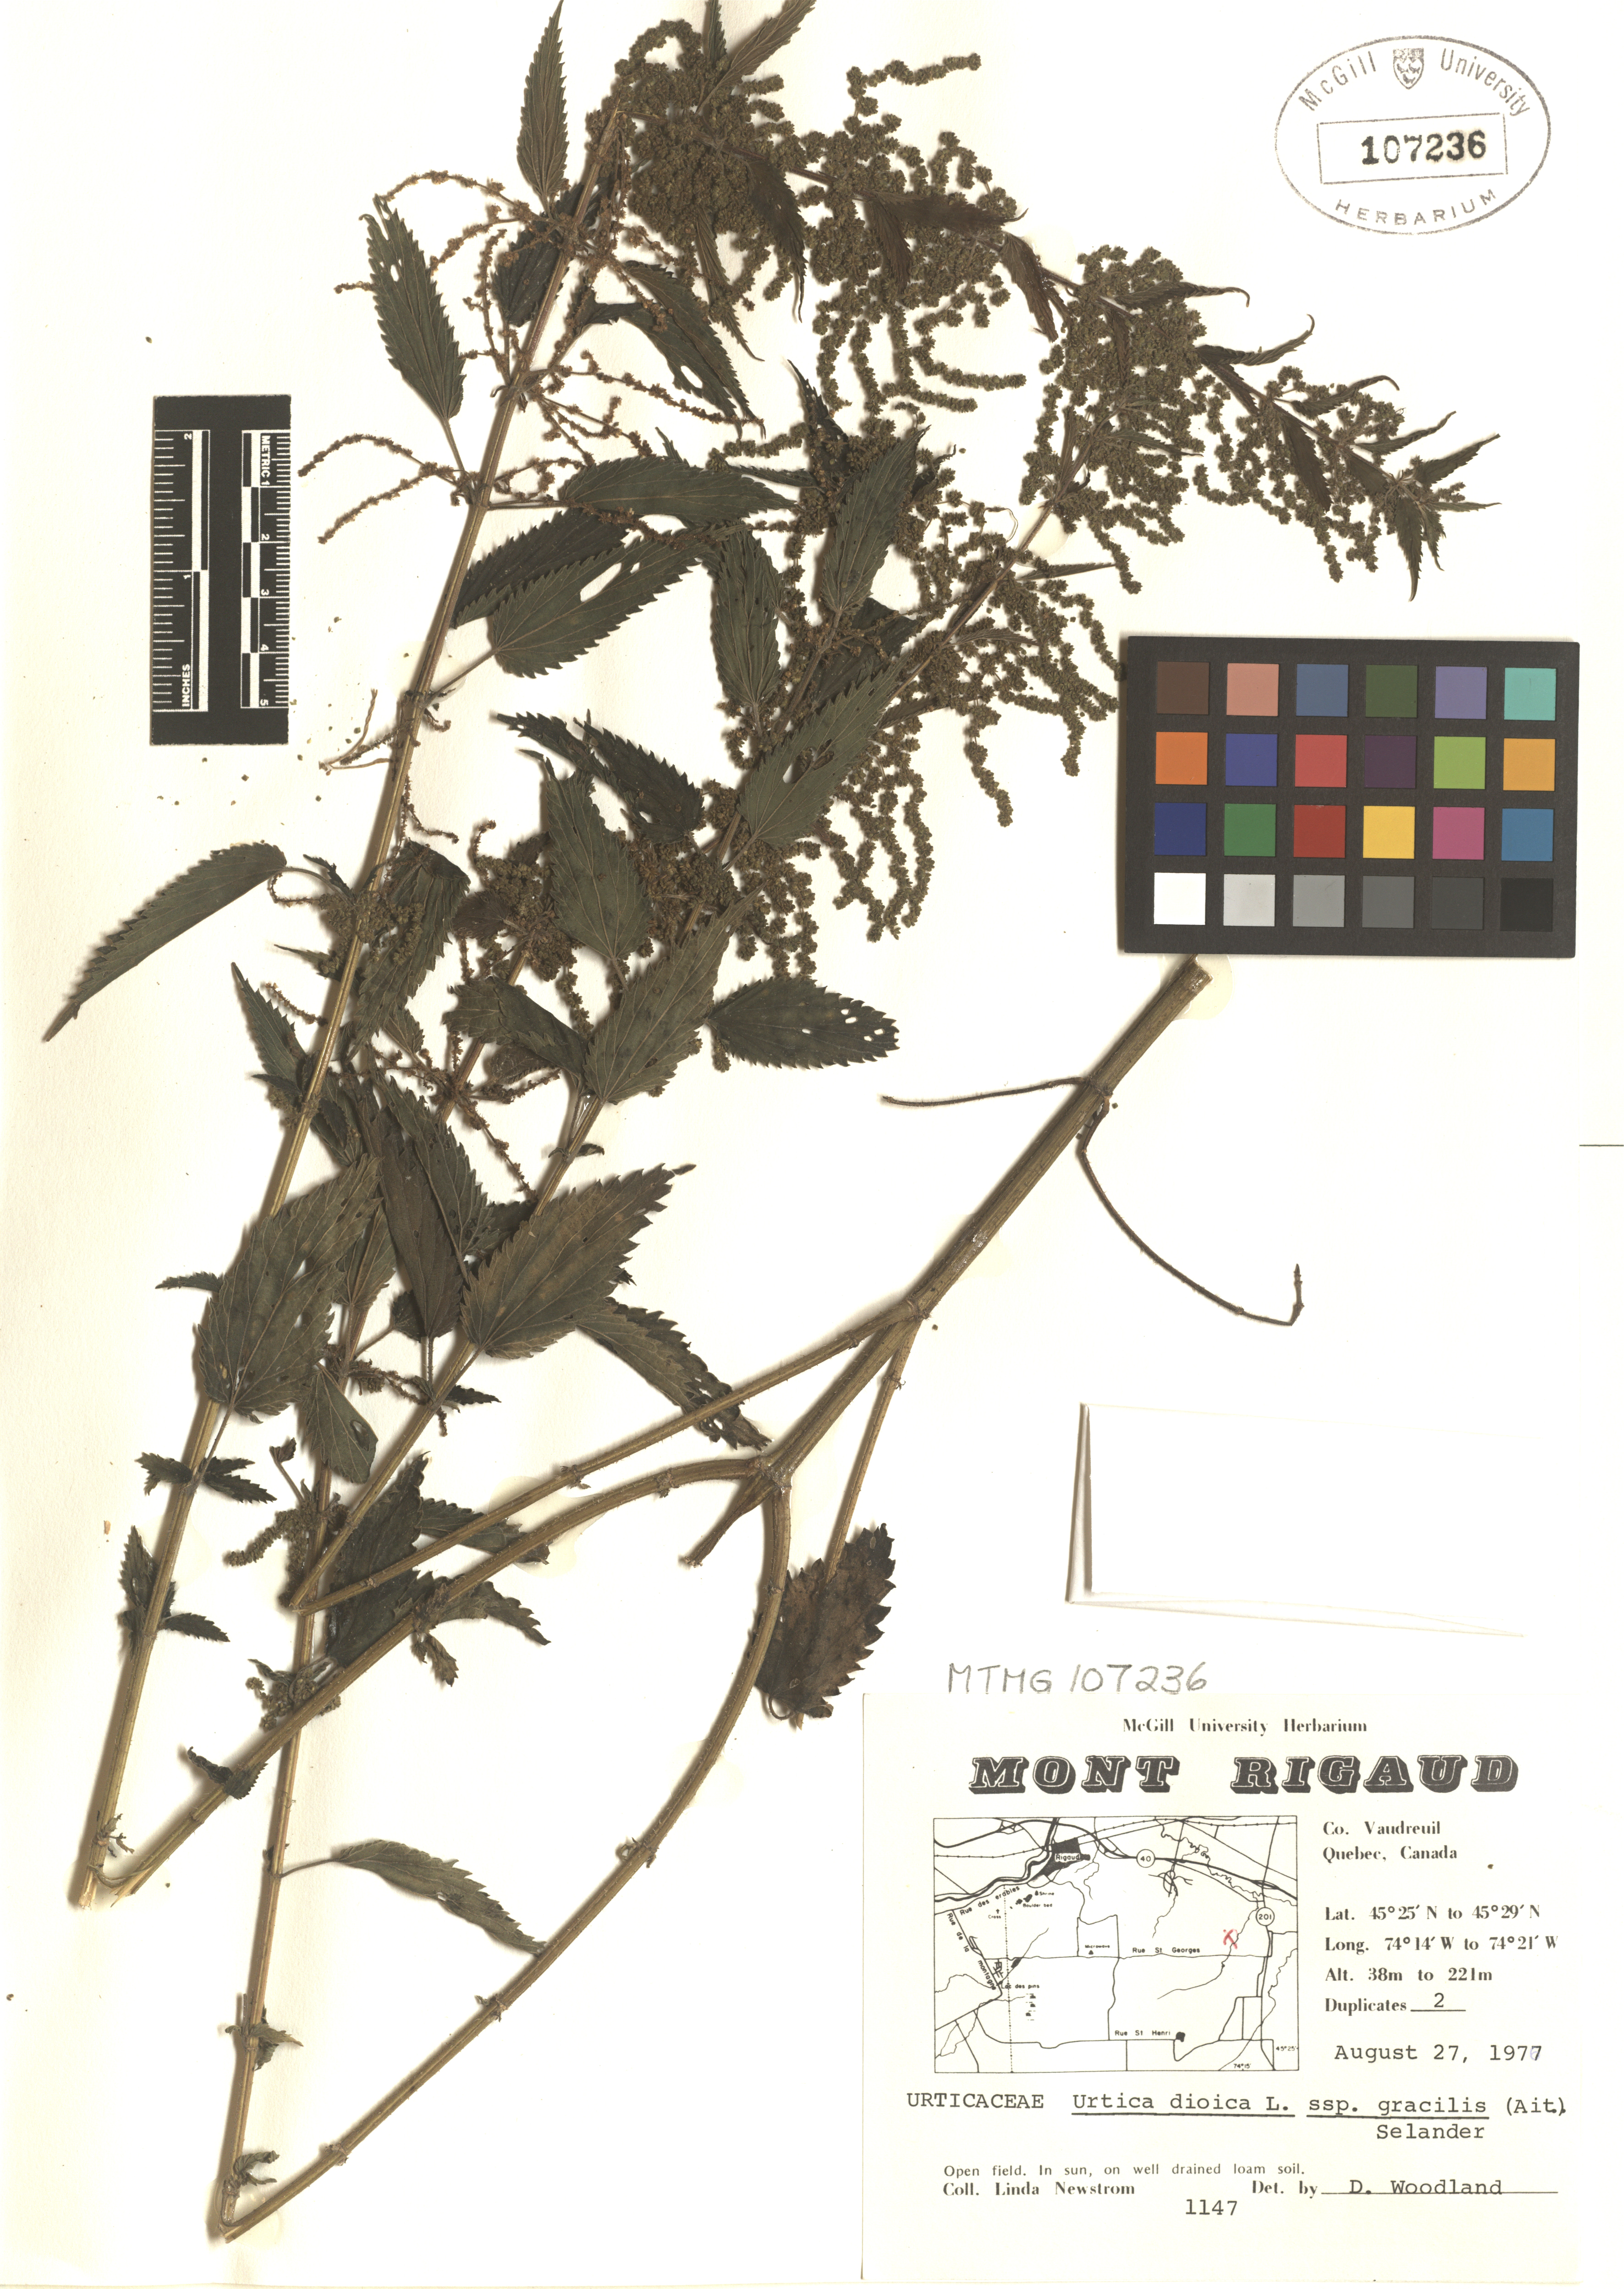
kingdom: Plantae
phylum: Tracheophyta
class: Magnoliopsida
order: Rosales
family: Urticaceae
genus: Urtica
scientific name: Urtica gracilis
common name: Slender stinging nettle
